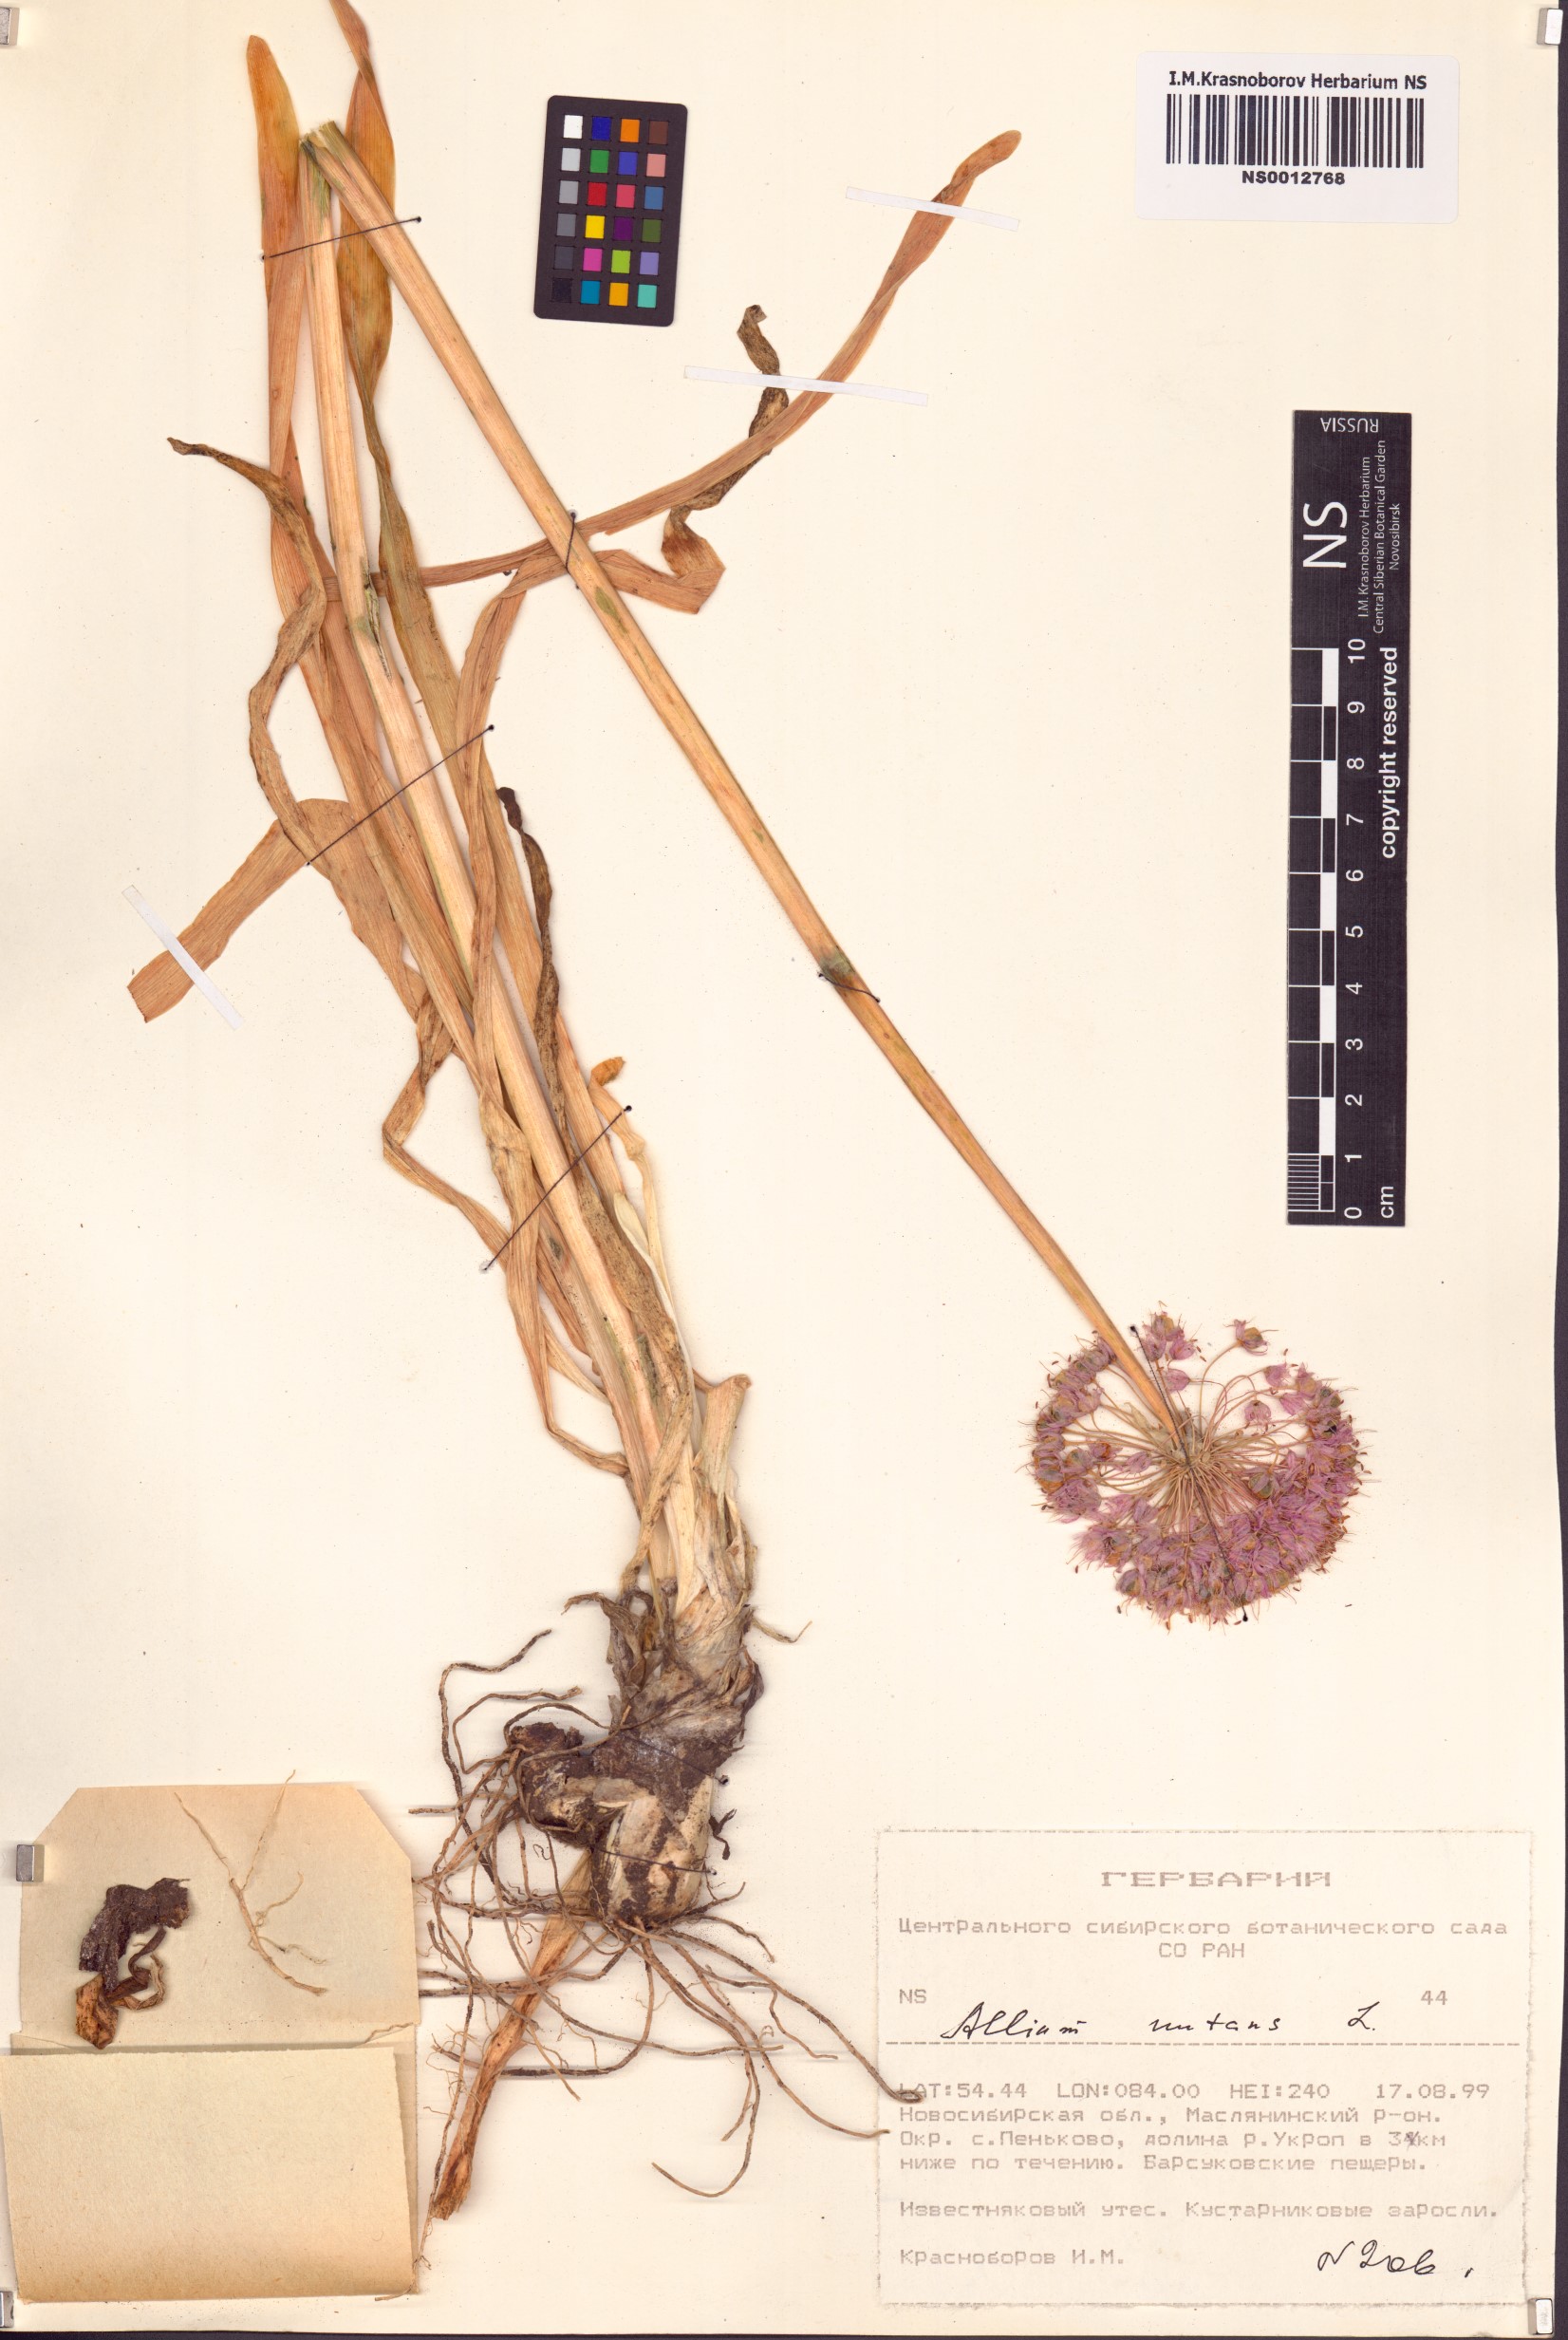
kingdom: Plantae
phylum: Tracheophyta
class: Liliopsida
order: Asparagales
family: Amaryllidaceae
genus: Allium
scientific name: Allium nutans
